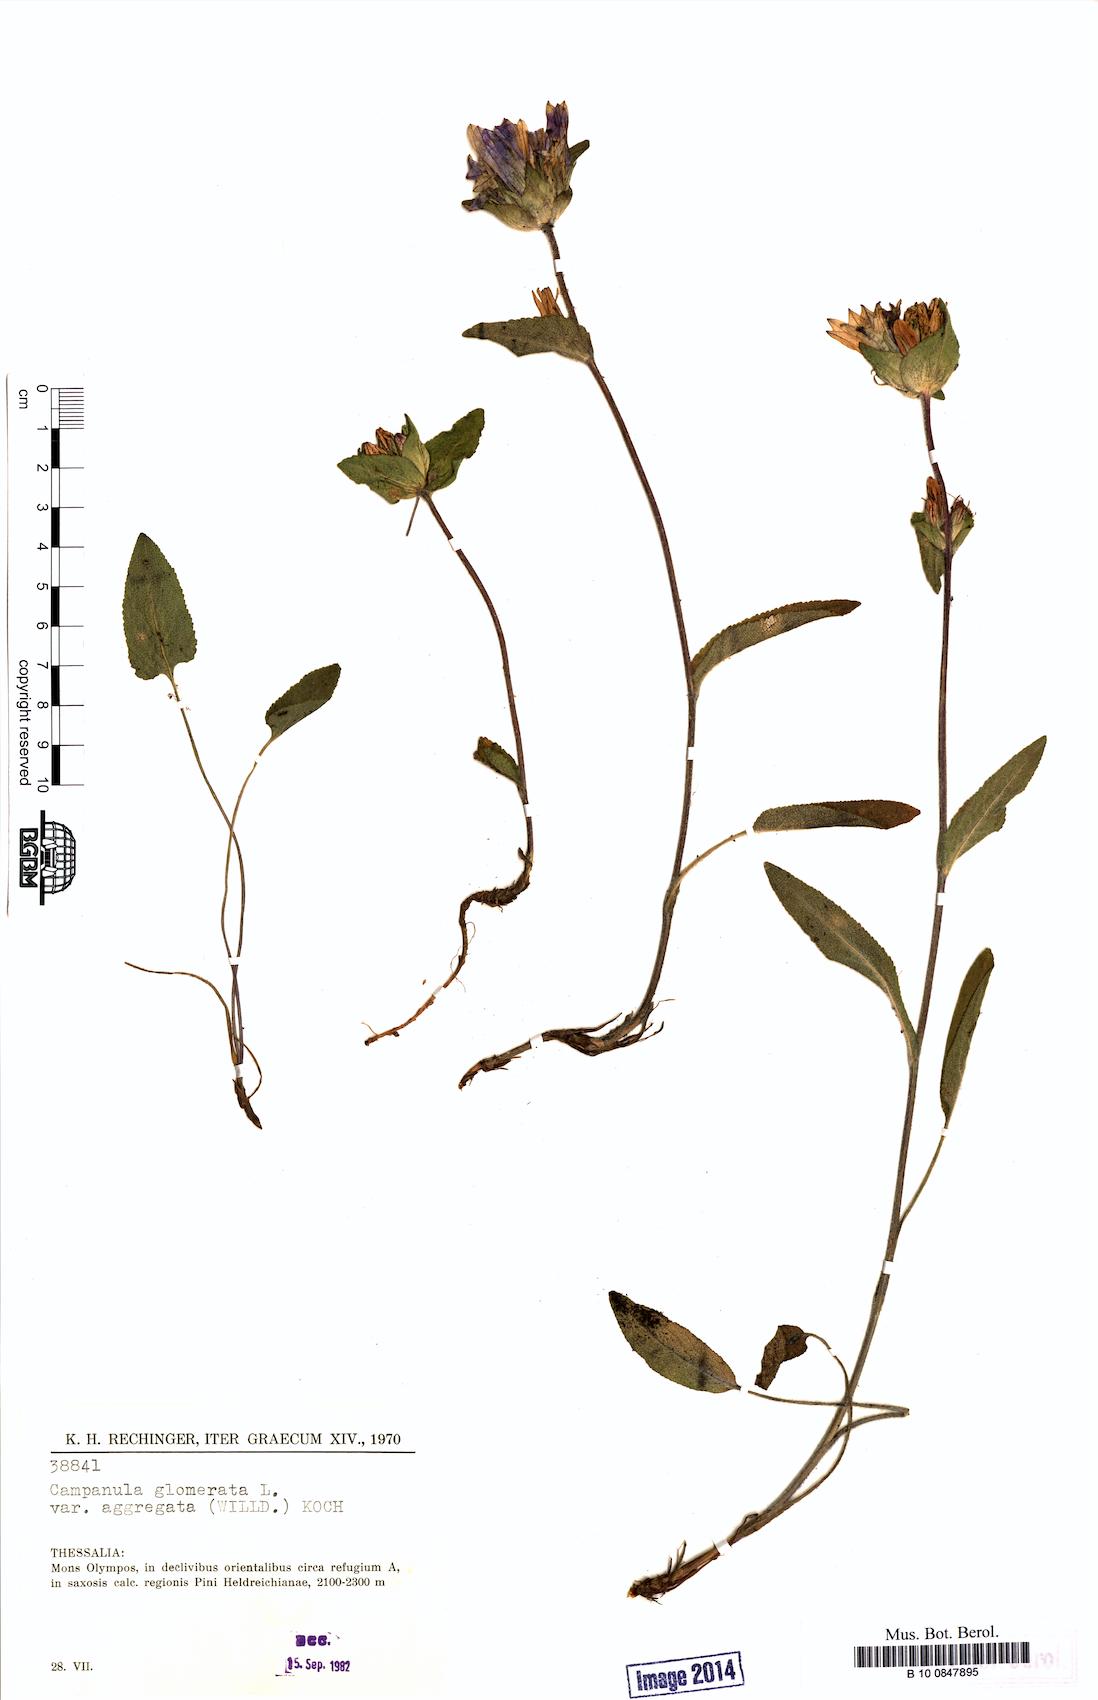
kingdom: Plantae
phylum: Tracheophyta
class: Magnoliopsida
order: Asterales
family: Campanulaceae
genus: Campanula
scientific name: Campanula glomerata
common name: Clustered bellflower
